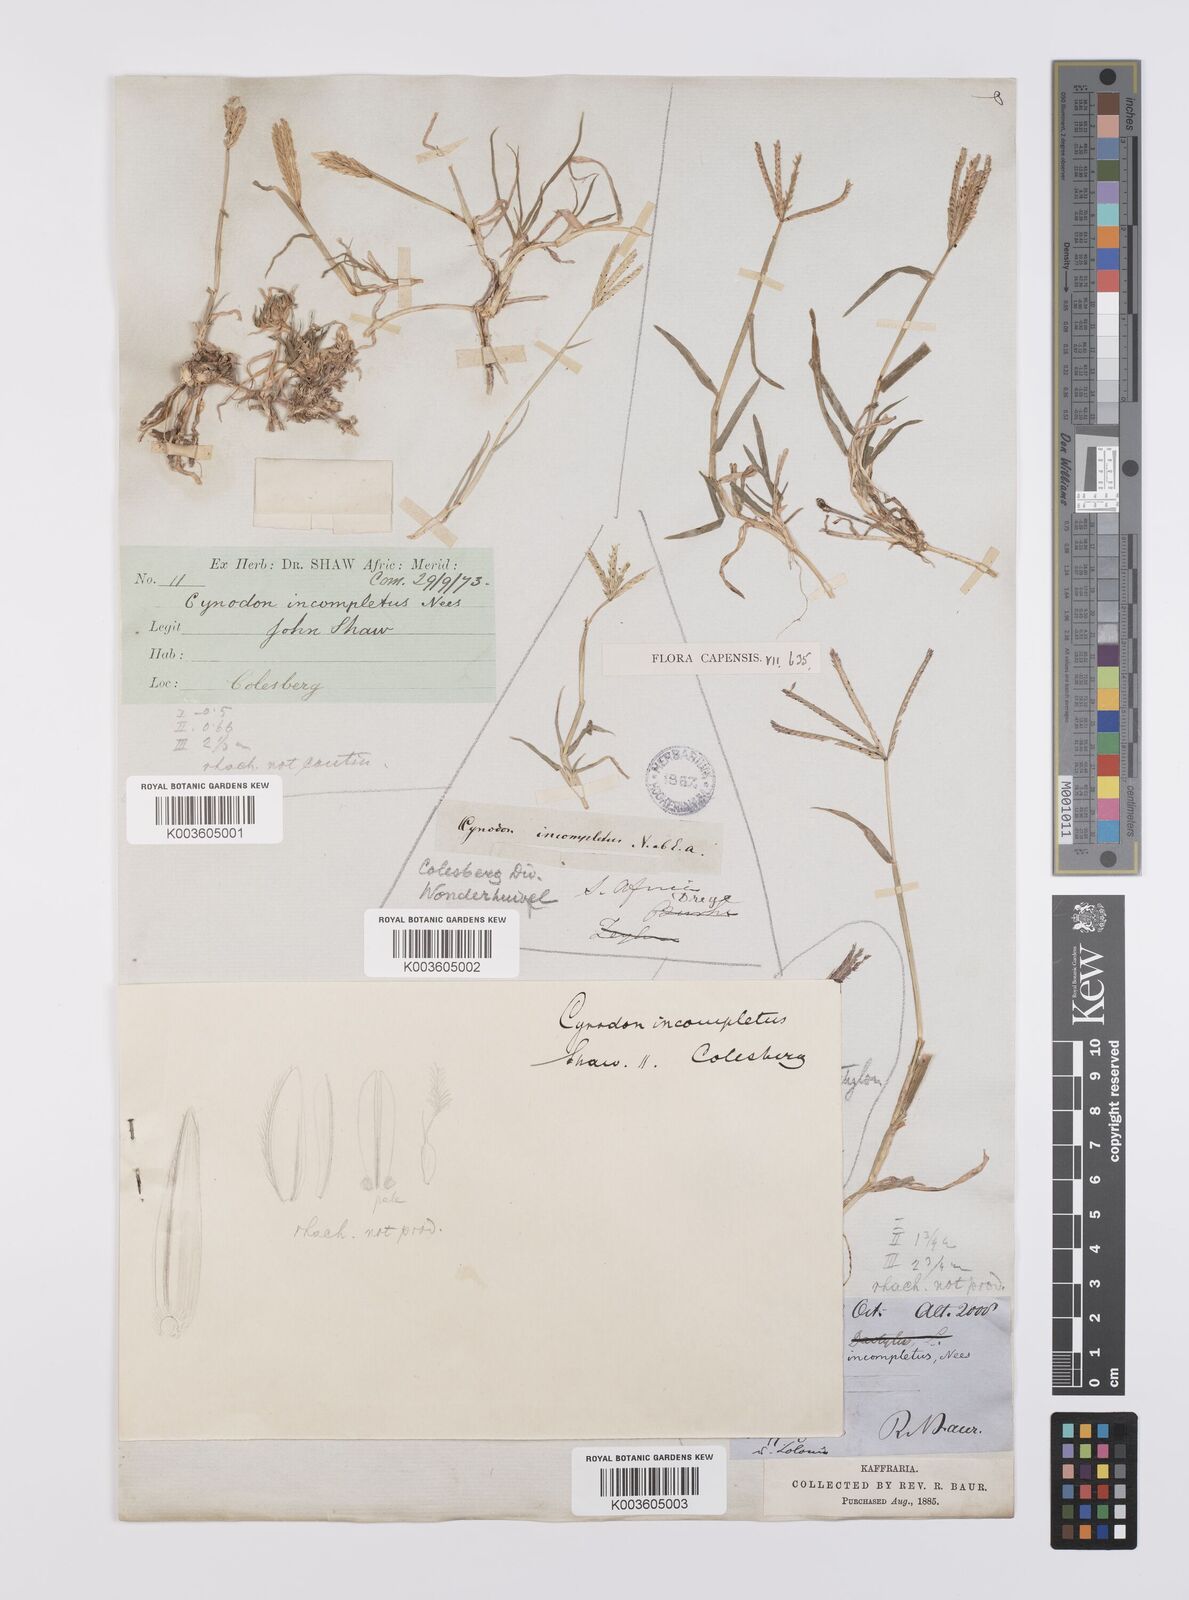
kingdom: Plantae
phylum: Tracheophyta
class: Liliopsida
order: Poales
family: Poaceae
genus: Cynodon
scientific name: Cynodon incompletus
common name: African bermuda-grass
